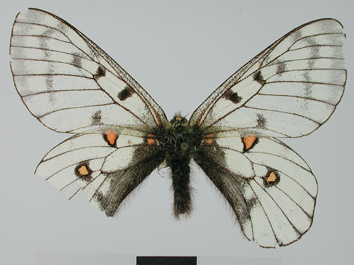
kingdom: Animalia
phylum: Arthropoda
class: Insecta
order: Lepidoptera
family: Papilionidae
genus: Parnassius
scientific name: Parnassius bremeri
